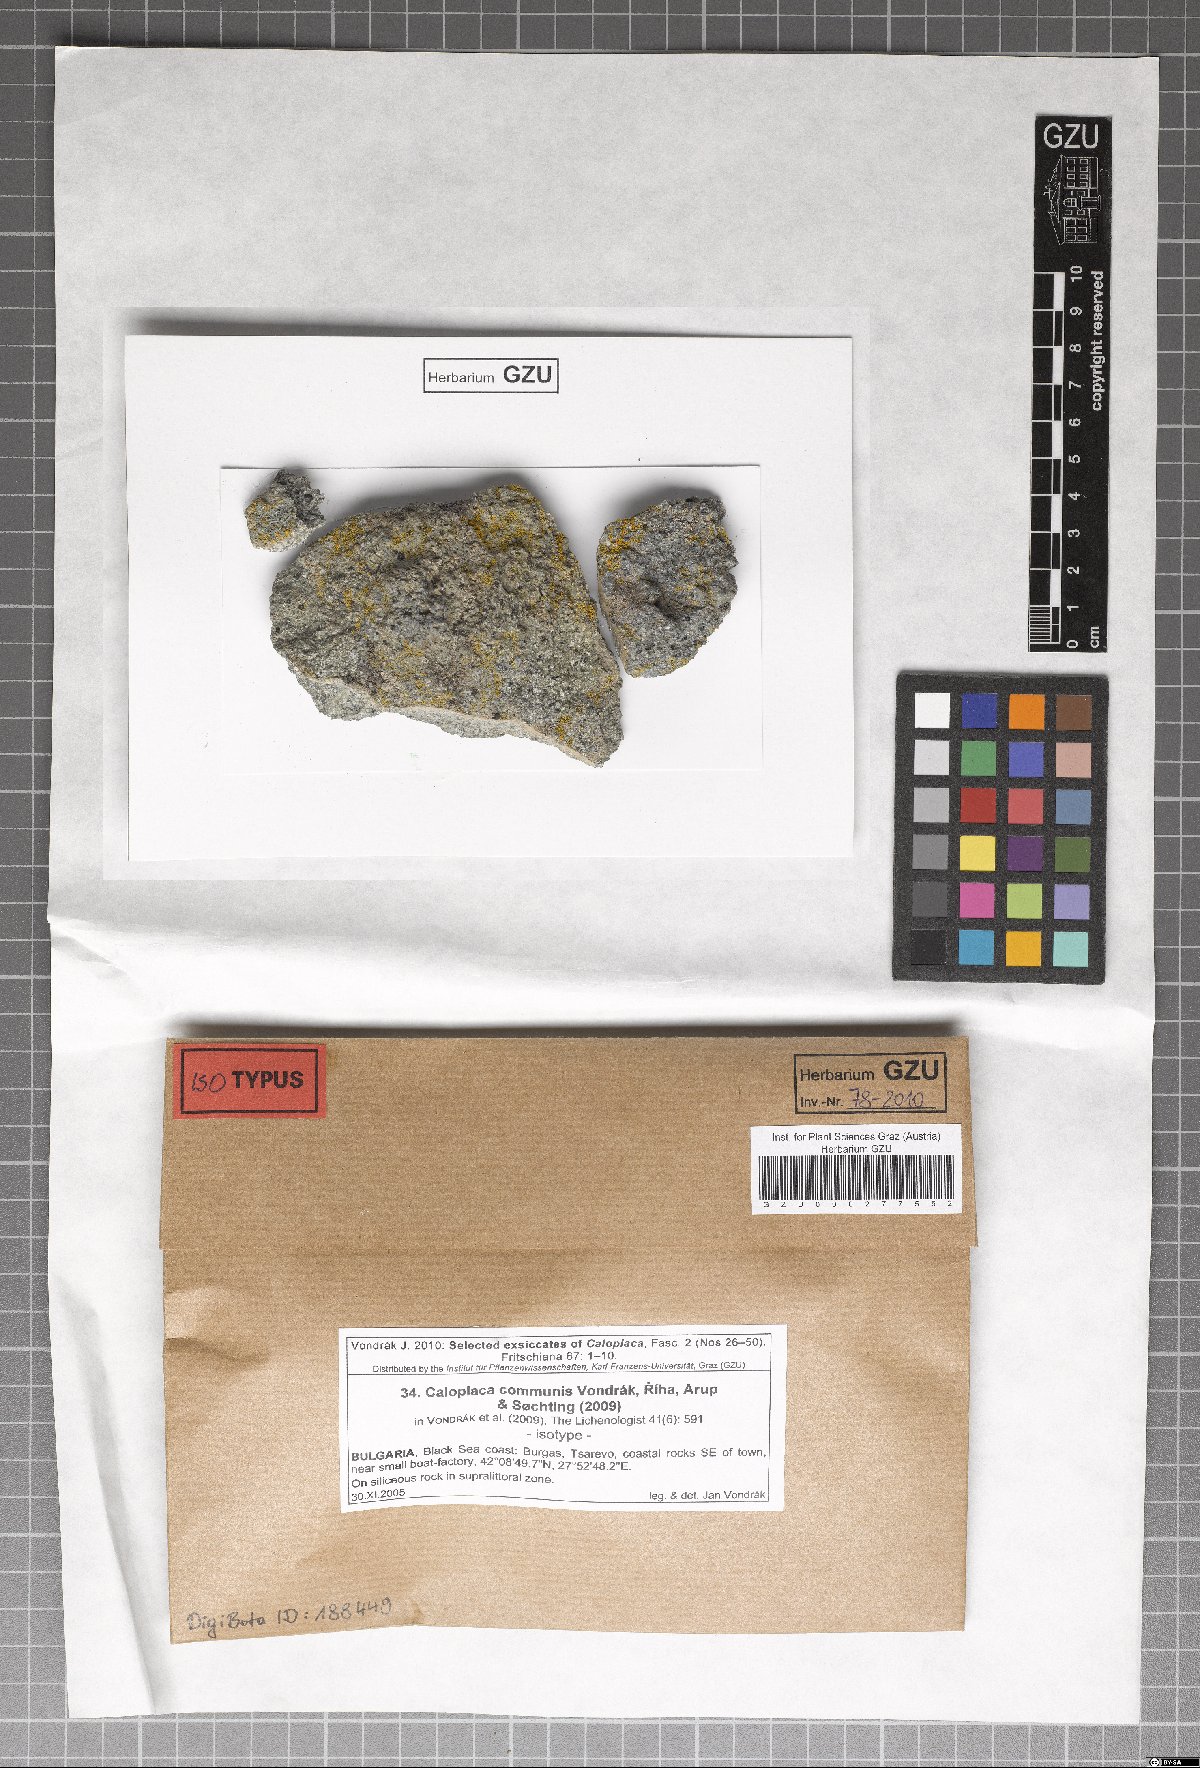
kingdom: Fungi
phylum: Ascomycota
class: Lecanoromycetes
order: Teloschistales
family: Teloschistaceae
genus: Flavoplaca
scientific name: Flavoplaca communis
